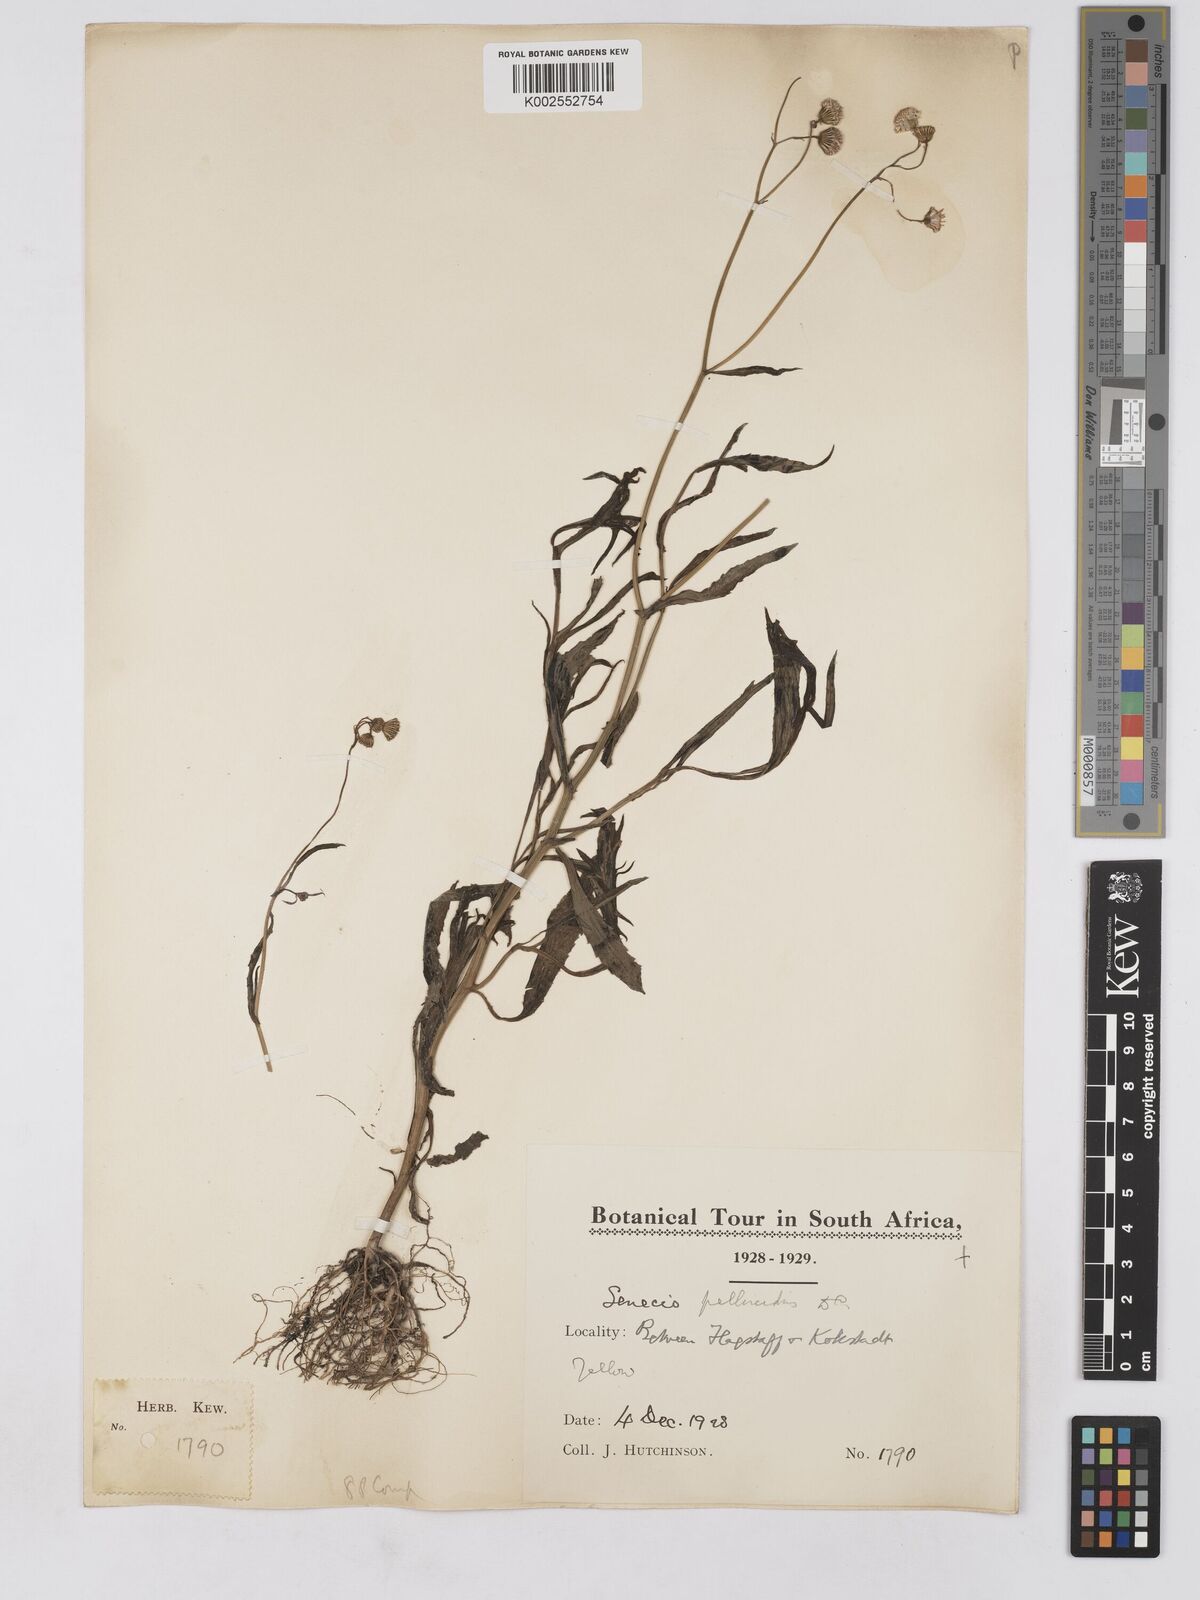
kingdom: Plantae
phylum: Tracheophyta
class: Magnoliopsida
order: Asterales
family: Asteraceae
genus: Senecio
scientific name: Senecio madagascariensis
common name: Madagascar ragwort
